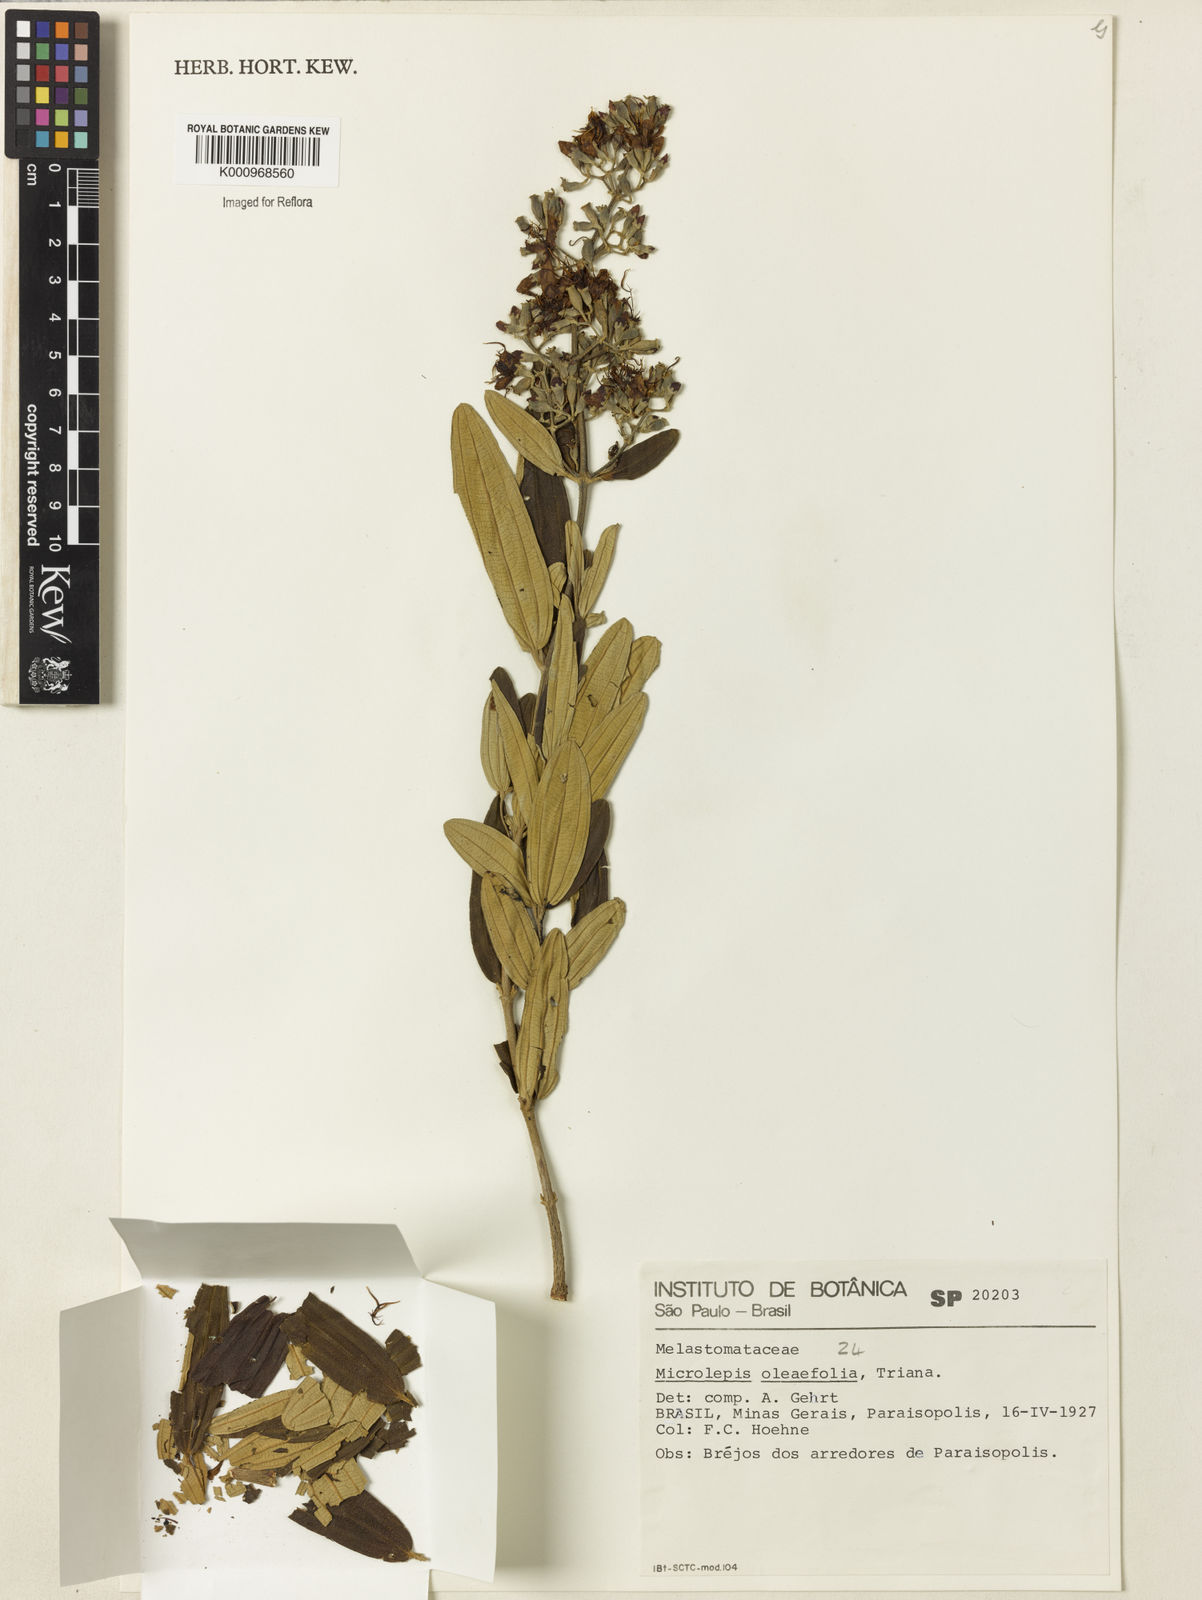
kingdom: Plantae
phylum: Tracheophyta
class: Magnoliopsida
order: Myrtales
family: Melastomataceae
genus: Pleroma
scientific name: Pleroma oleifolia
